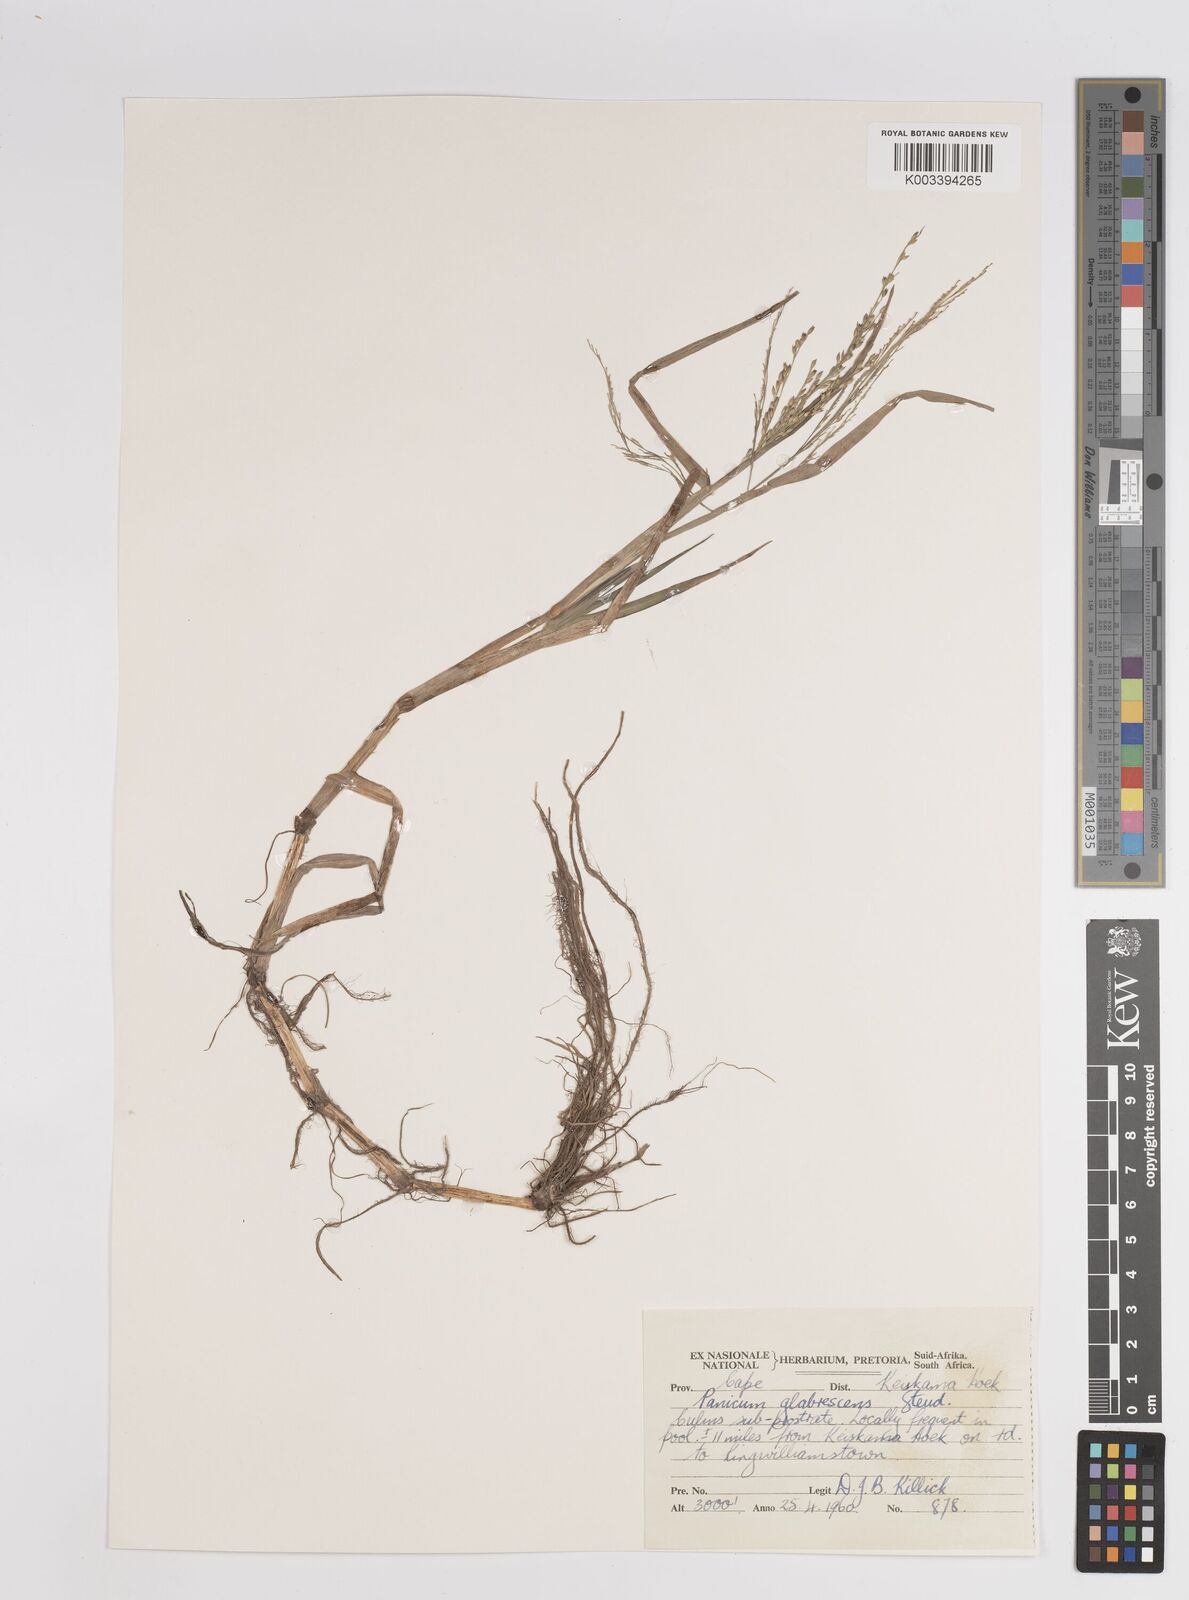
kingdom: Plantae
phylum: Tracheophyta
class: Liliopsida
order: Poales
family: Poaceae
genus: Panicum
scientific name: Panicum subalbidum
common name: Elbow buffalo grass
